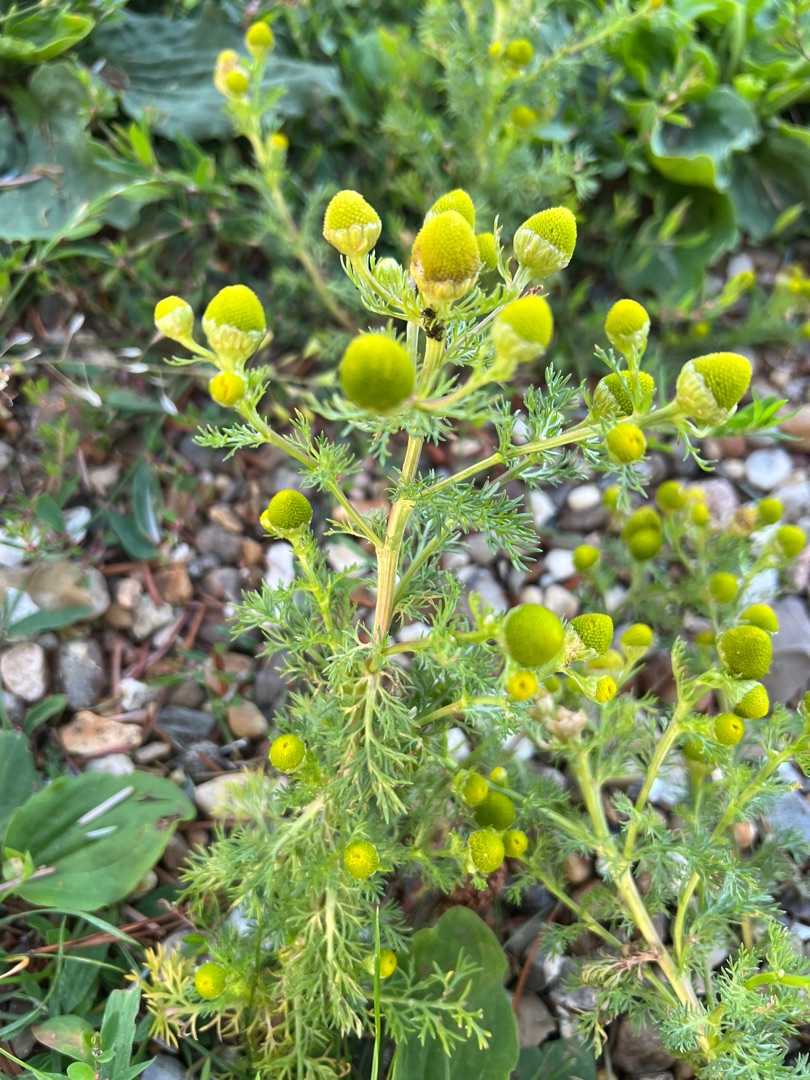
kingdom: Plantae
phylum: Tracheophyta
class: Magnoliopsida
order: Asterales
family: Asteraceae
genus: Matricaria
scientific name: Matricaria discoidea
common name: Skive-kamille
